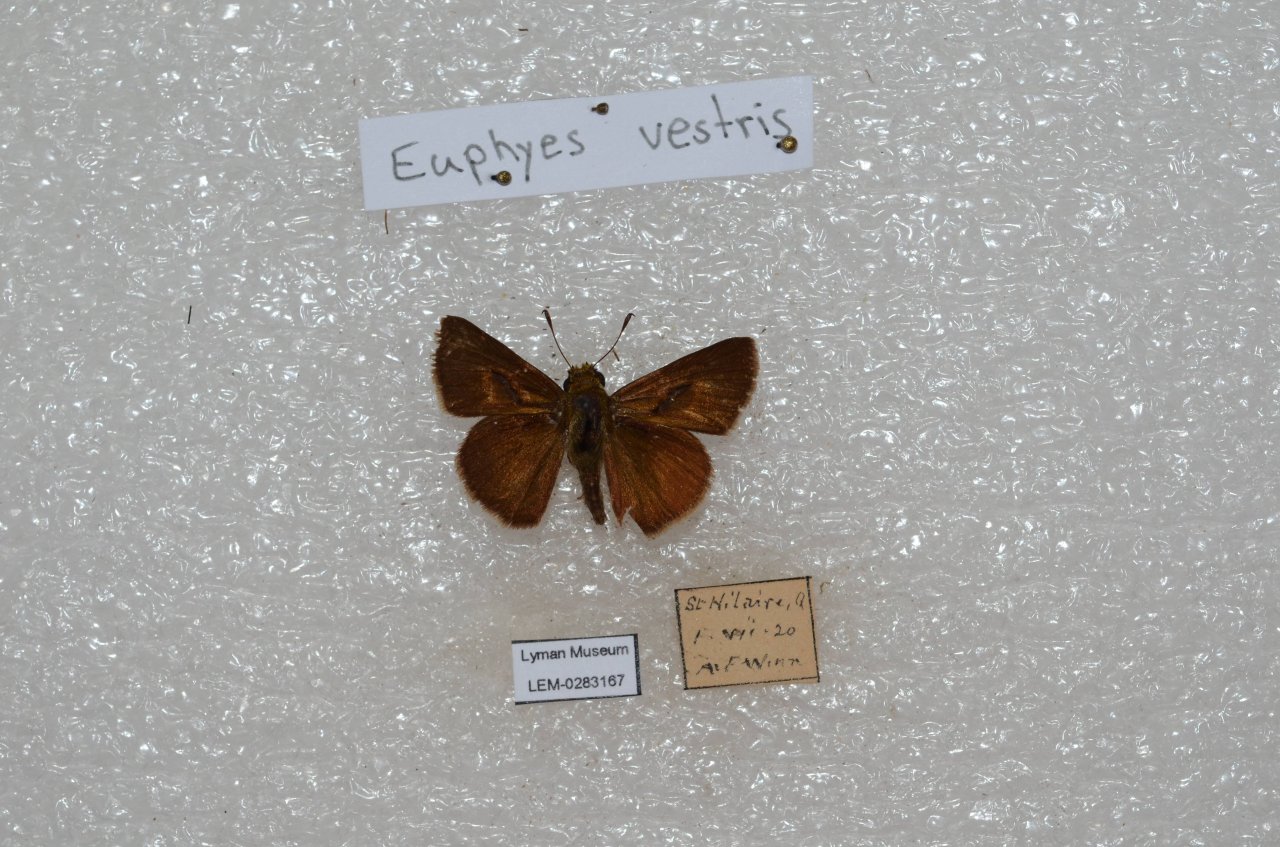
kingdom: Animalia
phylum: Arthropoda
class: Insecta
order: Lepidoptera
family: Hesperiidae
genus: Euphyes
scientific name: Euphyes vestris
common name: Dun Skipper
